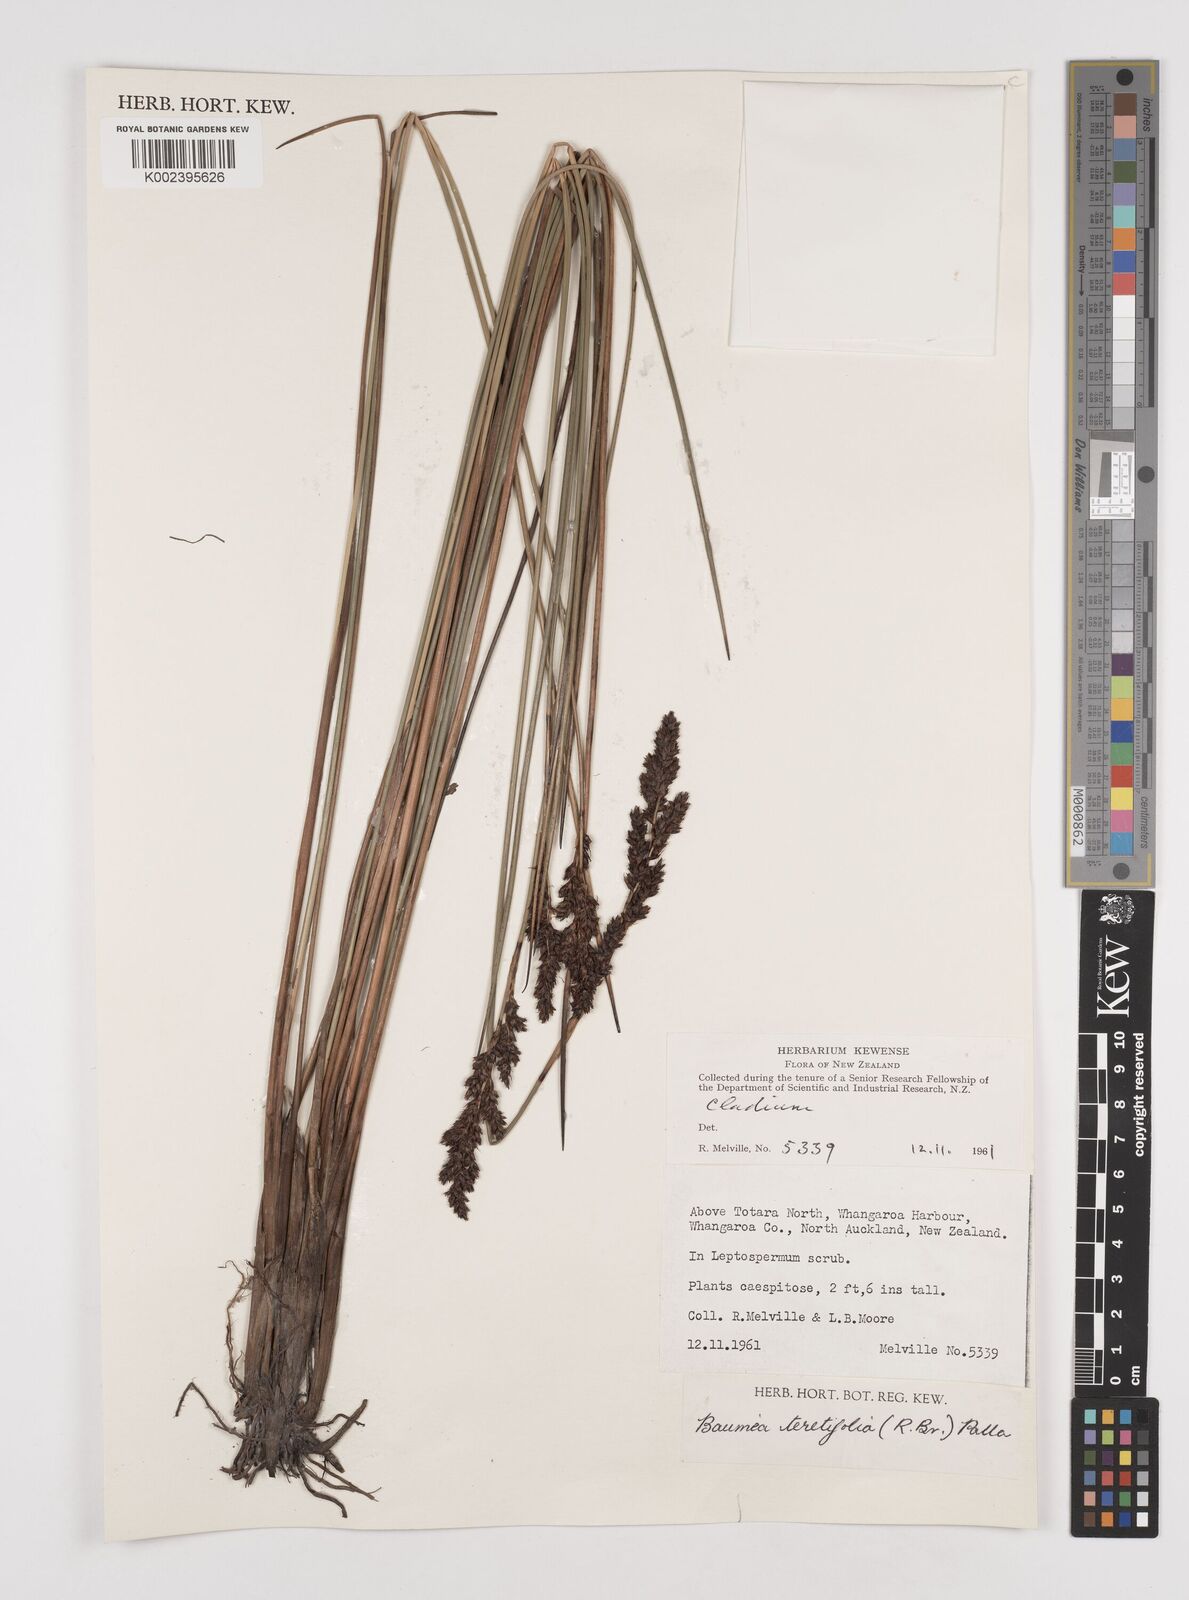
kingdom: Plantae
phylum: Tracheophyta
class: Liliopsida
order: Poales
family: Cyperaceae
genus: Machaerina
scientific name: Machaerina teretifolia
